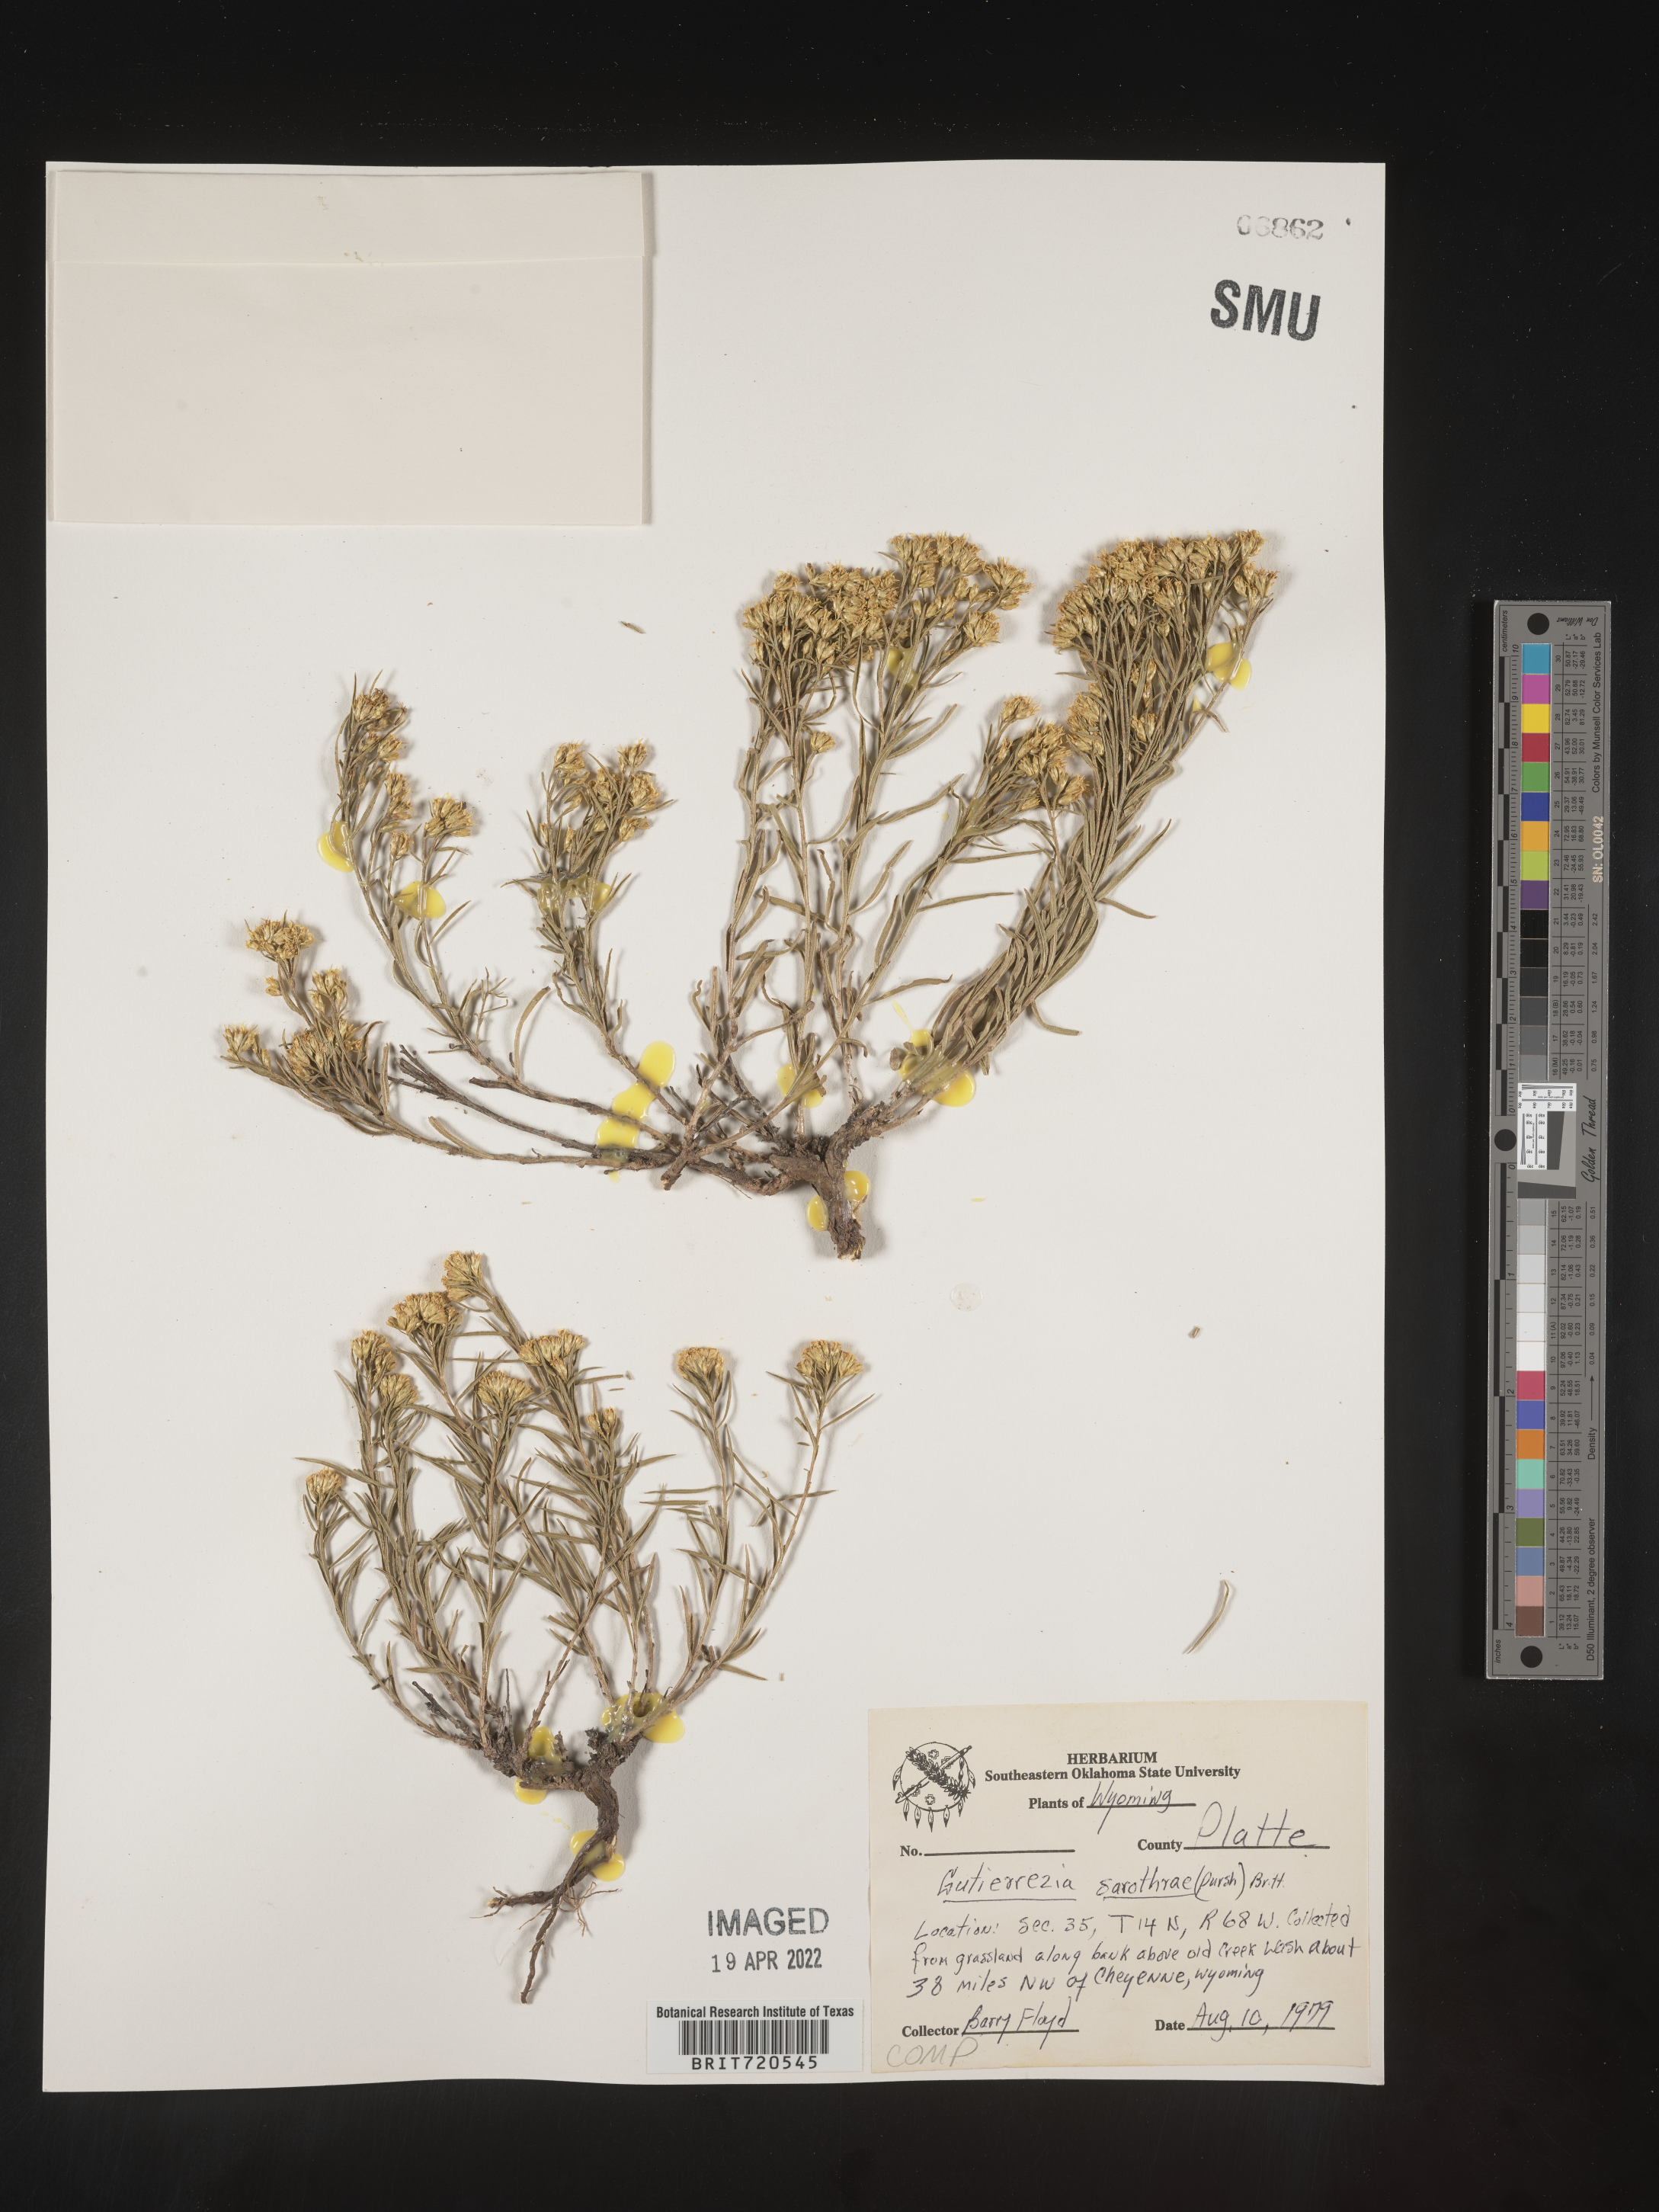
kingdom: Plantae
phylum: Tracheophyta
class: Magnoliopsida
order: Asterales
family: Asteraceae
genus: Gutierrezia
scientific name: Gutierrezia sarothrae
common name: Broom snakeweed
